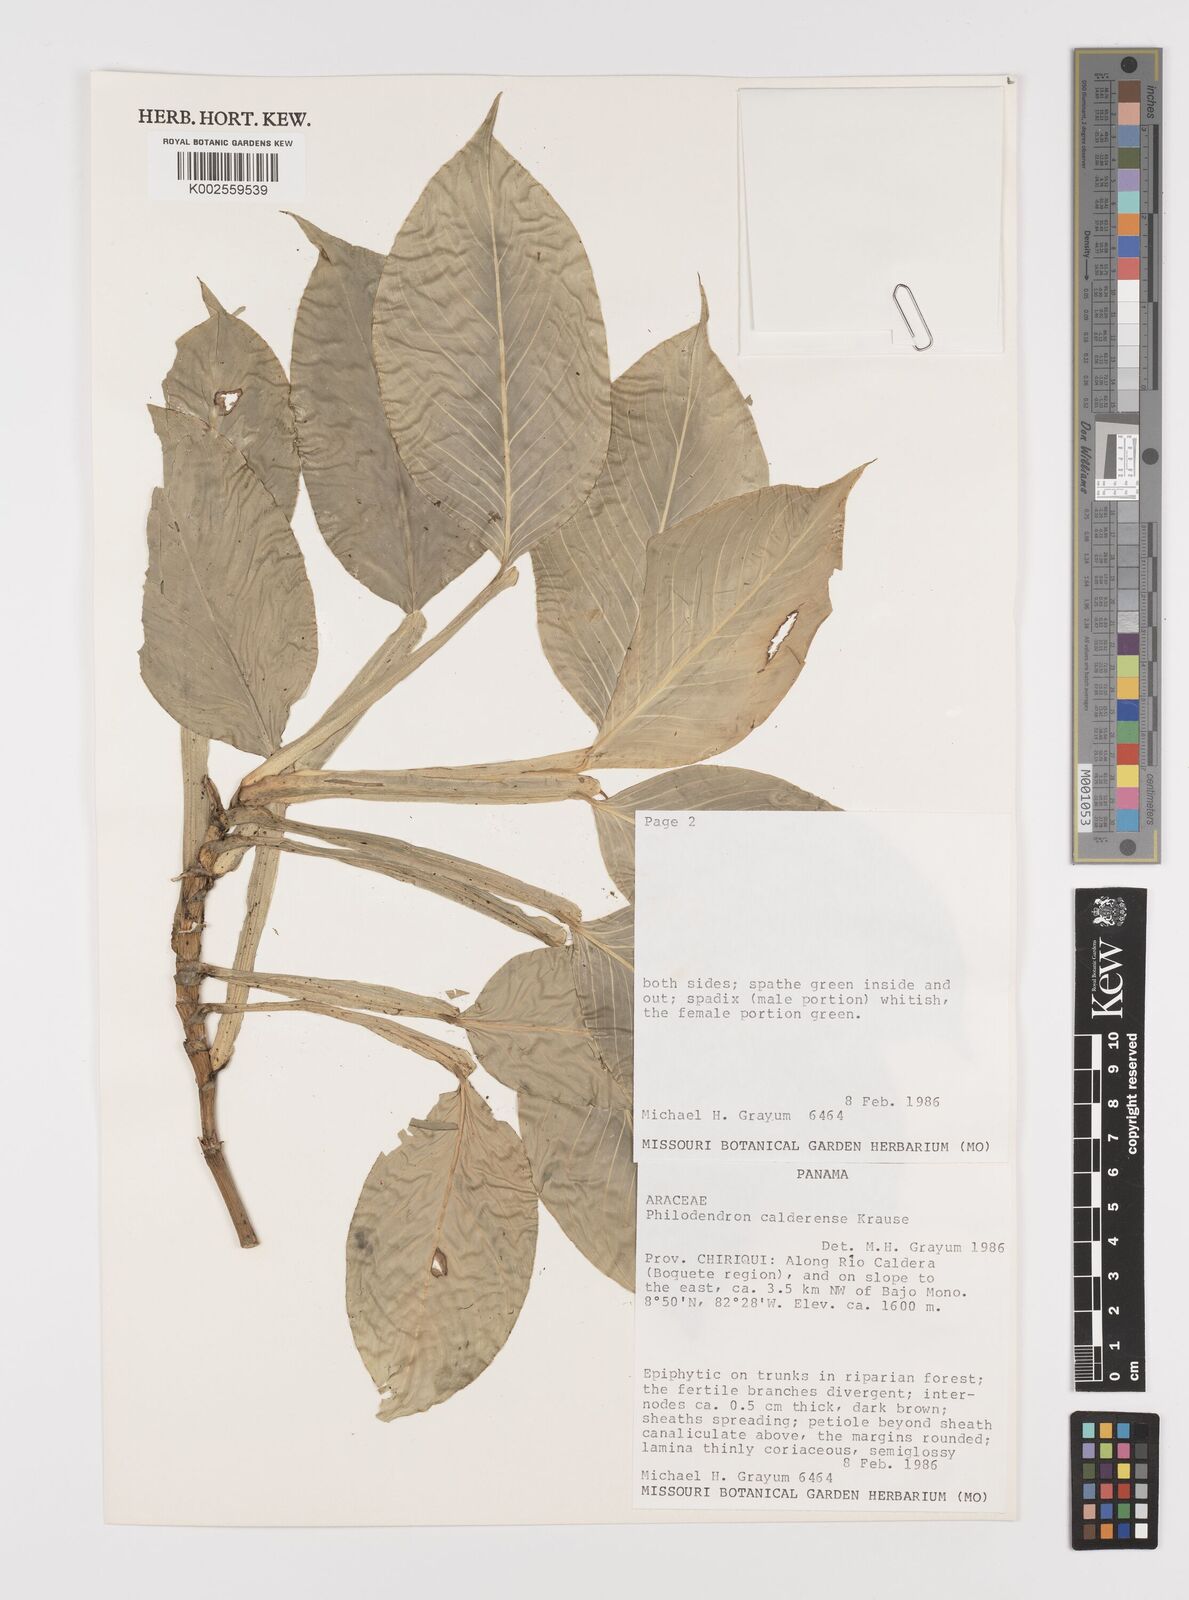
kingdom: Plantae
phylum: Tracheophyta
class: Liliopsida
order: Alismatales
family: Araceae
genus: Philodendron
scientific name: Philodendron aurantiifolium
